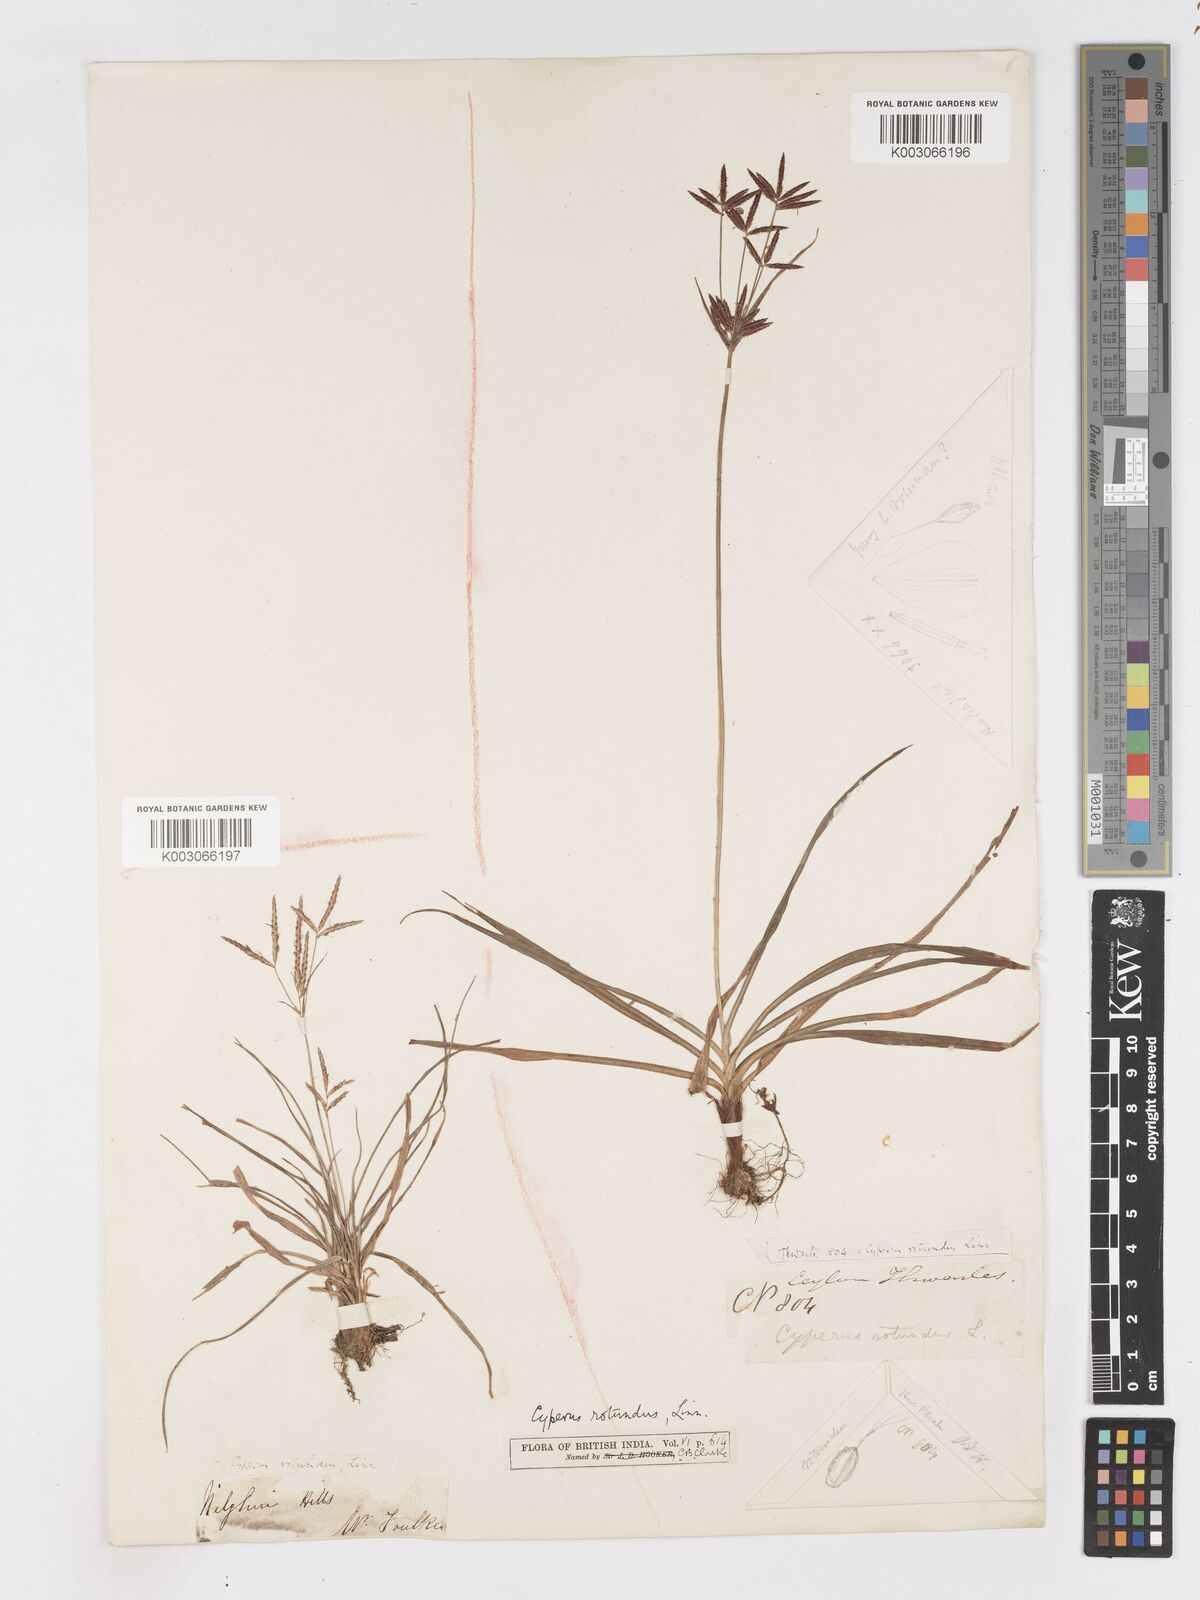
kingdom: Plantae
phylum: Tracheophyta
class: Liliopsida
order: Poales
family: Cyperaceae
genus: Cyperus
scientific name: Cyperus bifax
